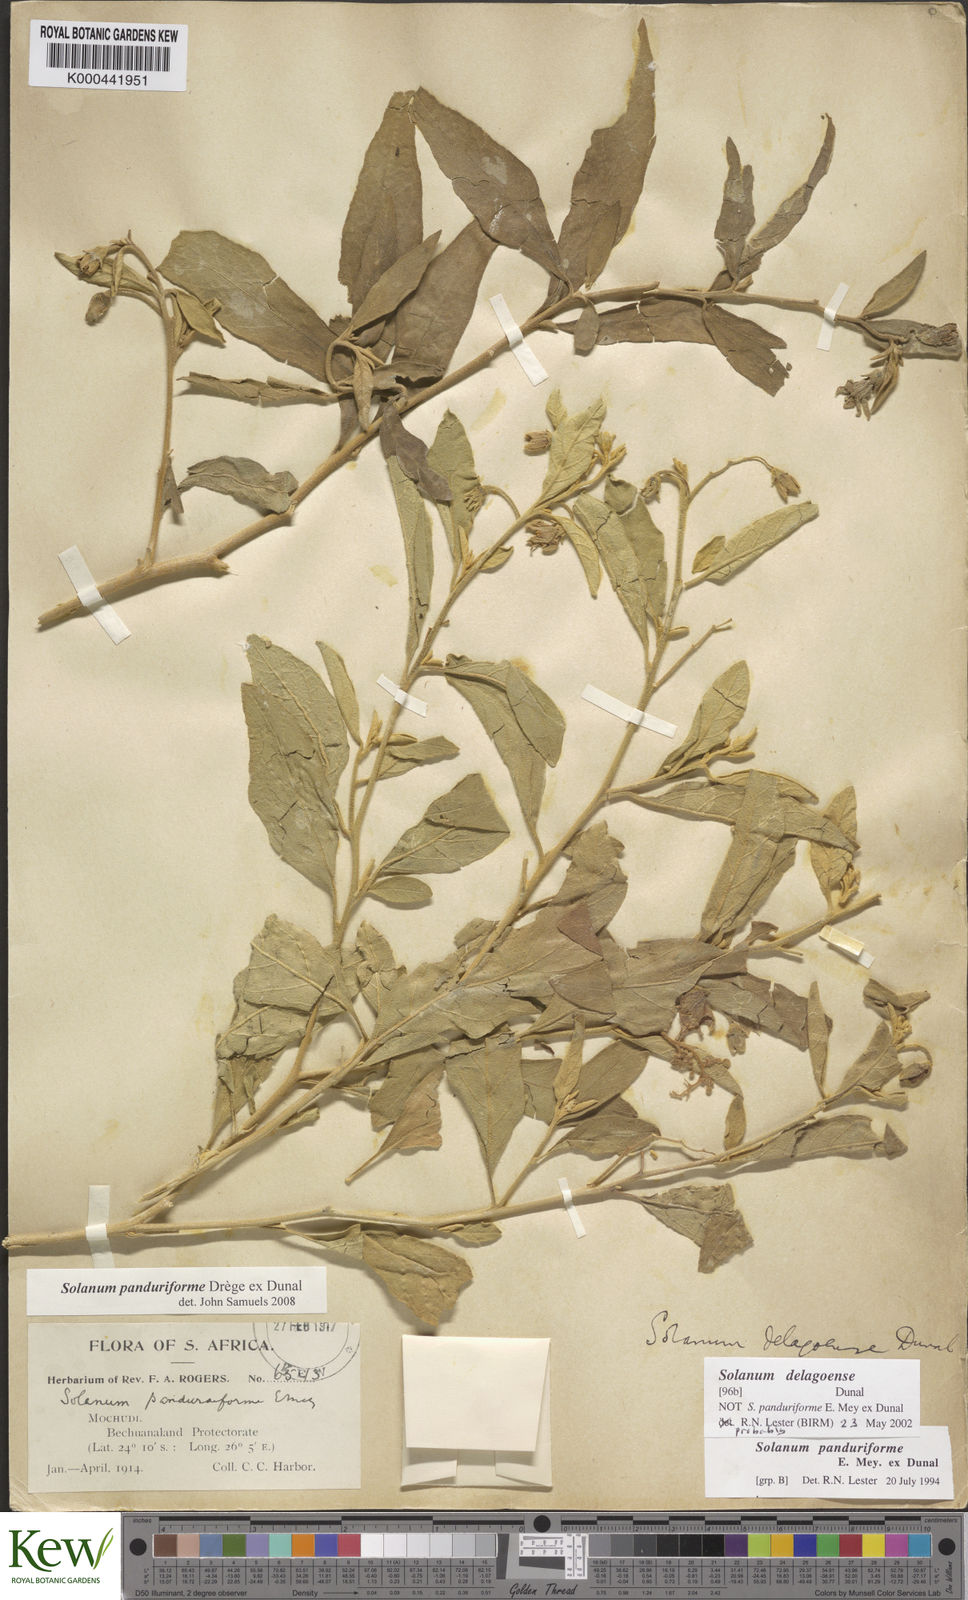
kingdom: Plantae
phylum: Tracheophyta
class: Magnoliopsida
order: Solanales
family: Solanaceae
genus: Solanum
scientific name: Solanum campylacanthum
